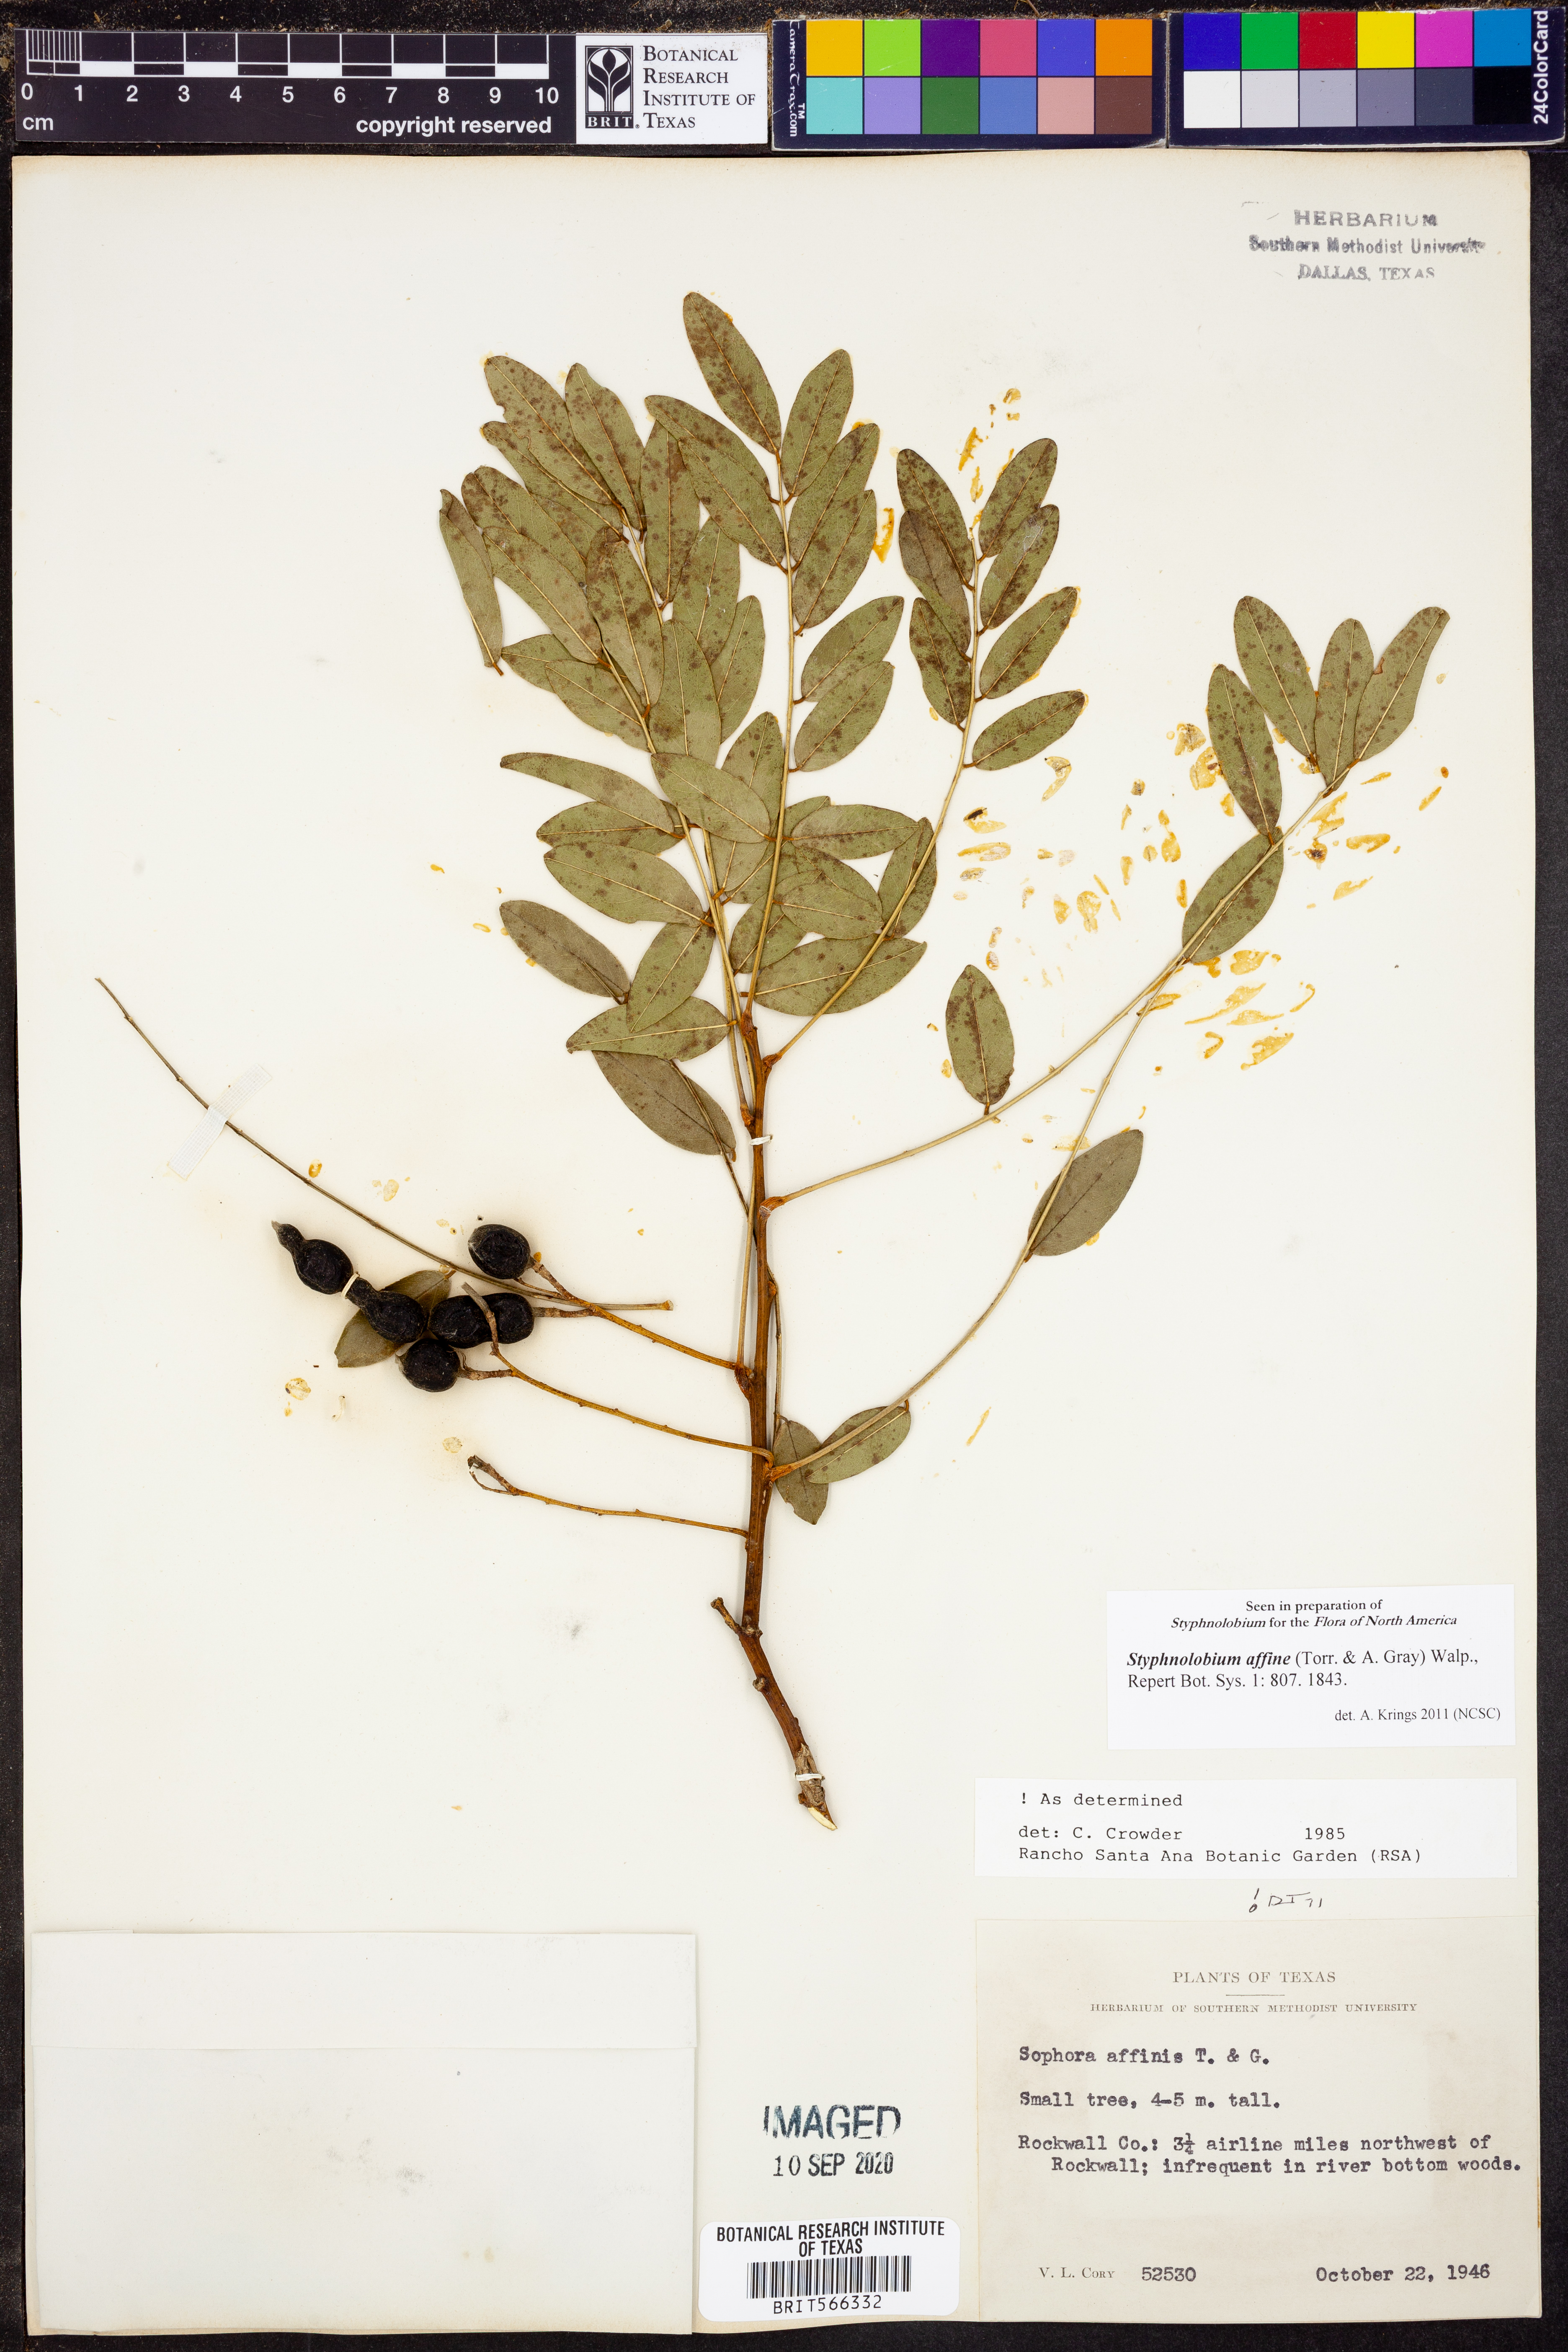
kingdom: Plantae
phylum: Tracheophyta
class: Magnoliopsida
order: Fabales
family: Fabaceae
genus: Styphnolobium
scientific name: Styphnolobium affine
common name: Texas sophora
